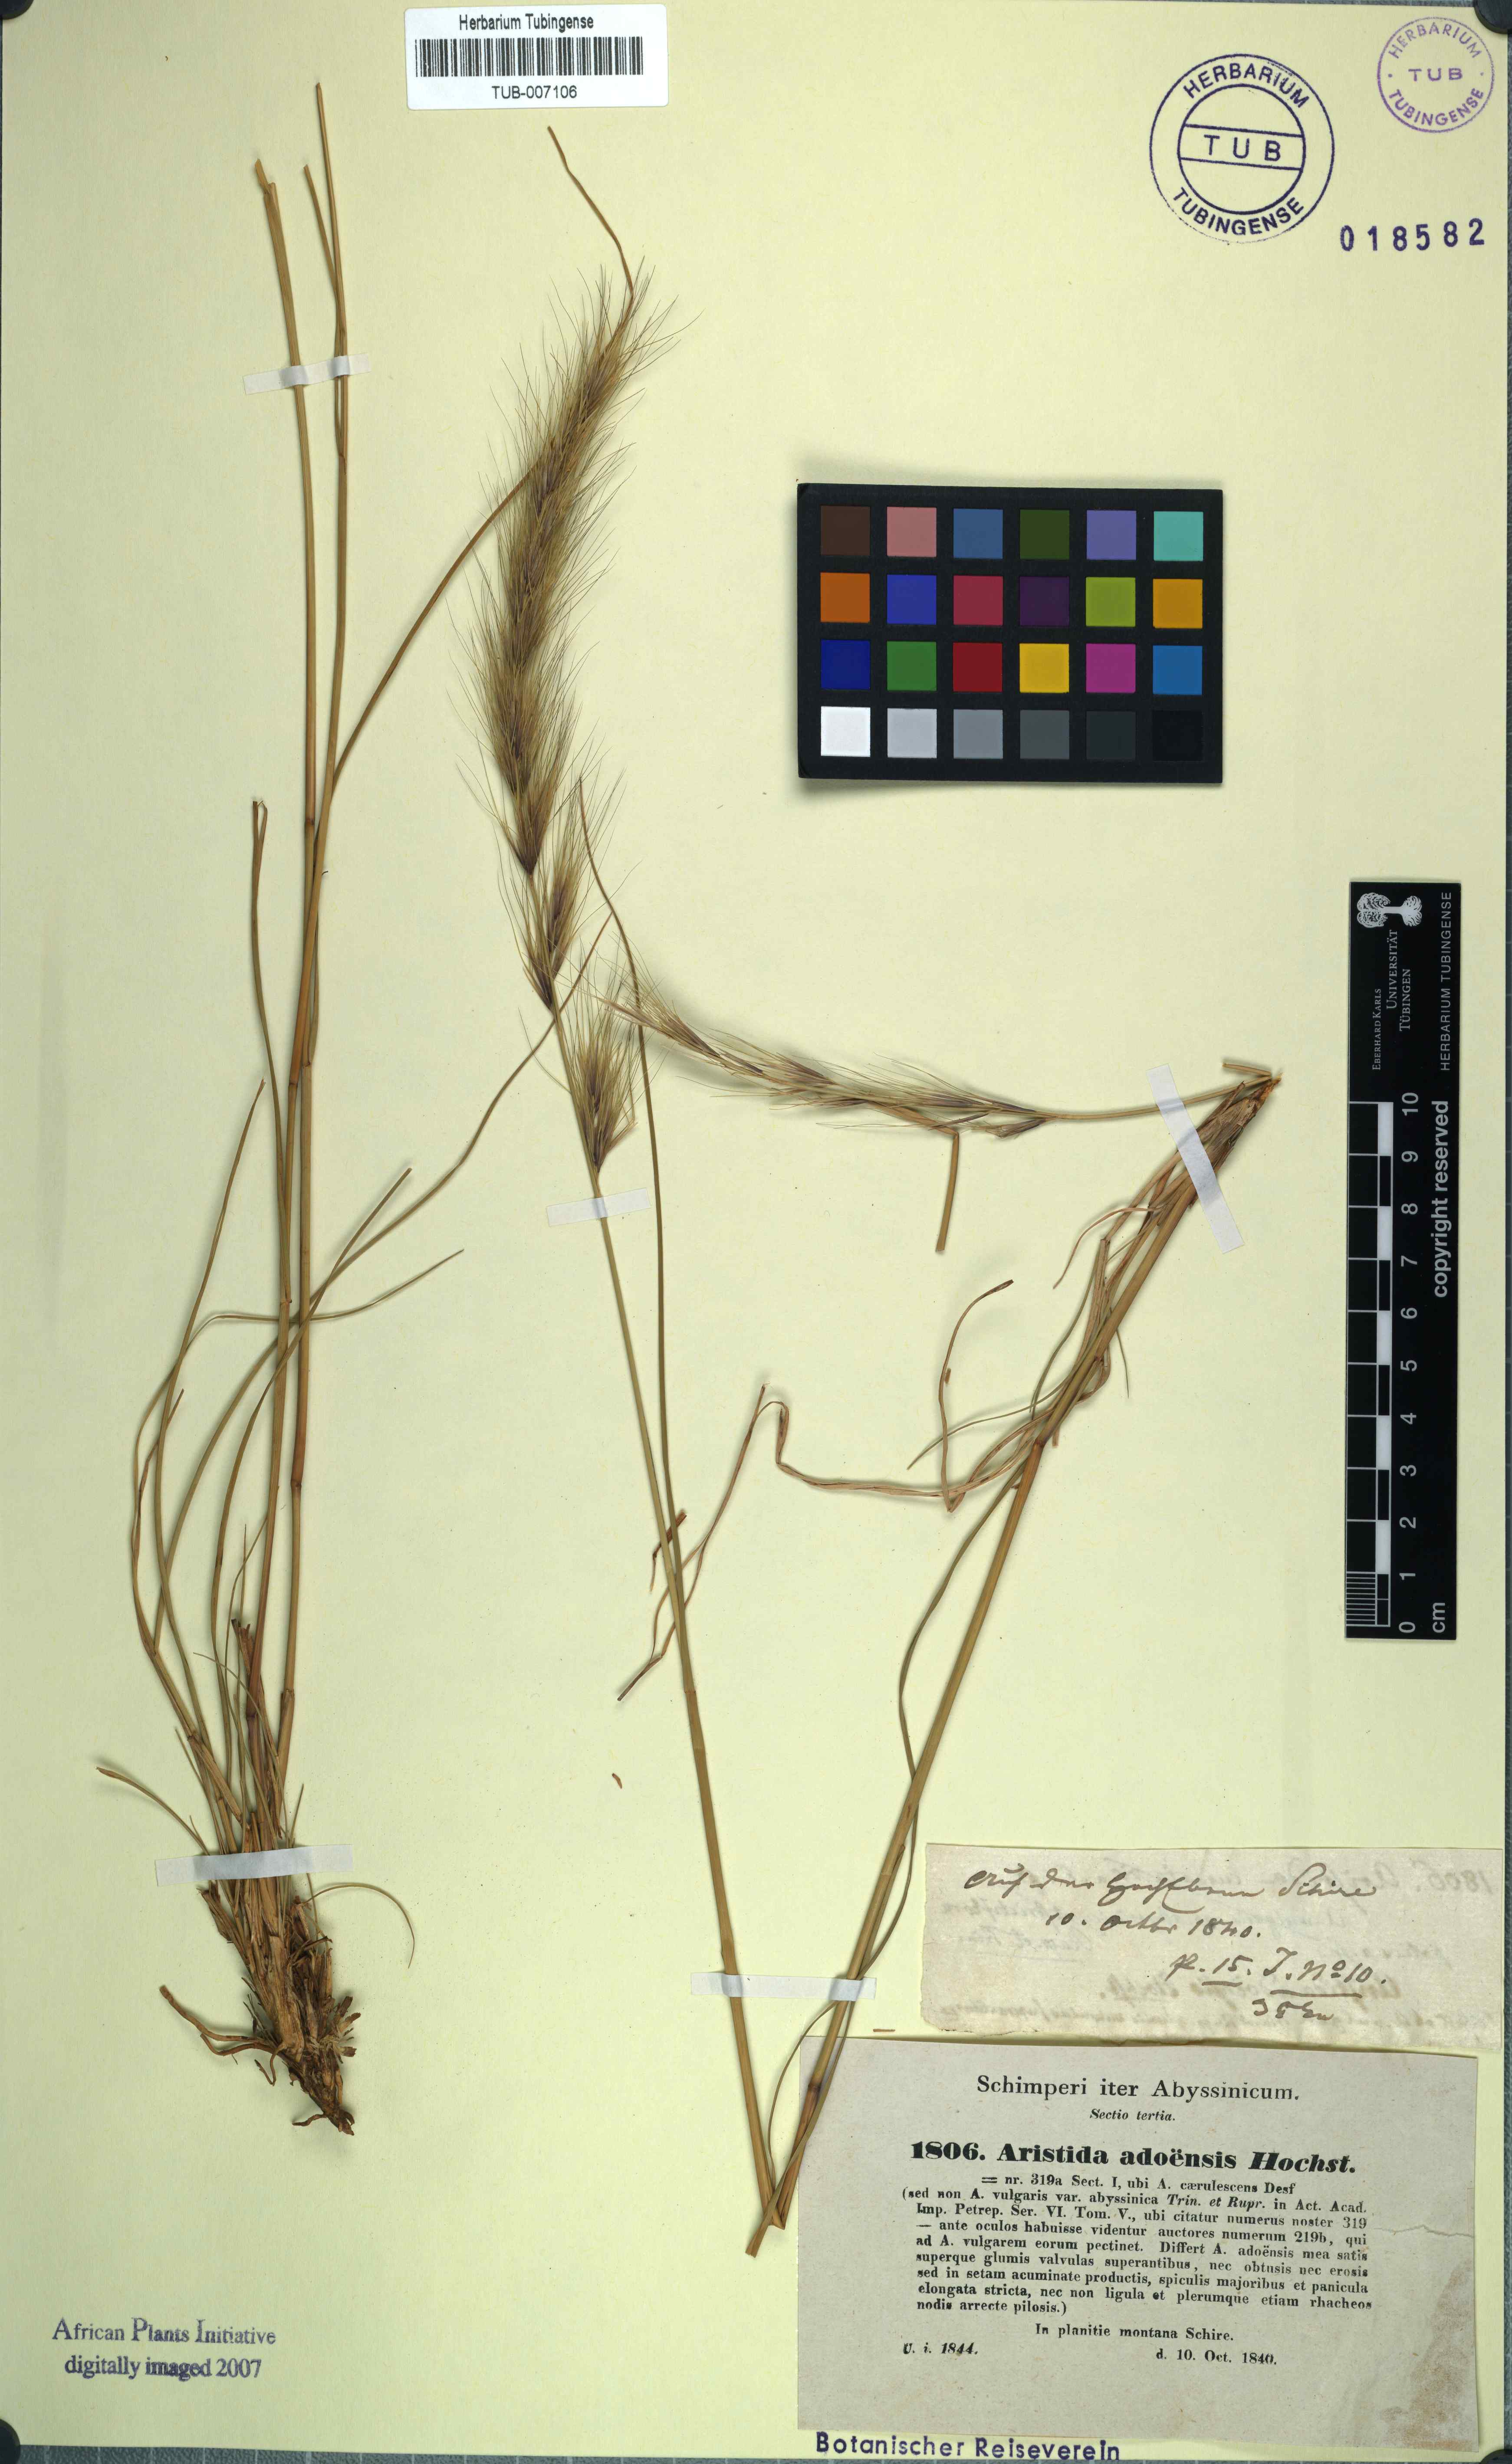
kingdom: Plantae
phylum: Tracheophyta
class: Liliopsida
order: Poales
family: Poaceae
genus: Aristida
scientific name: Aristida adoensis
